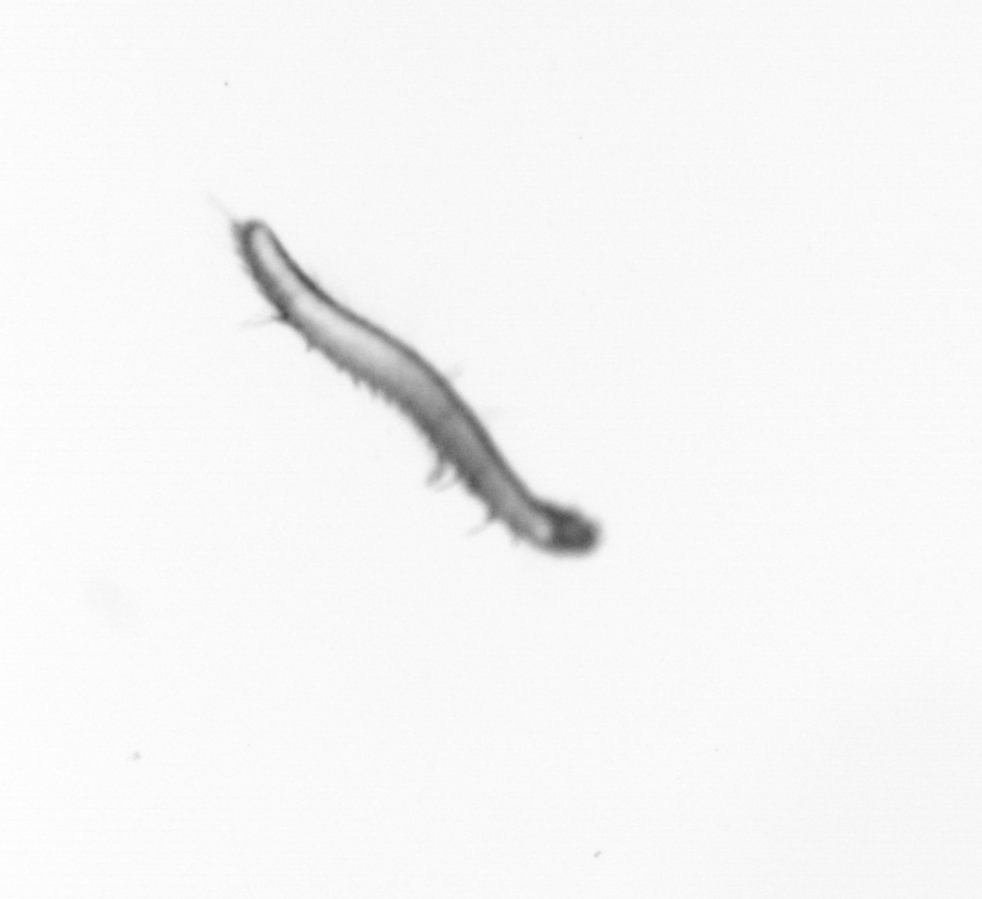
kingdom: Animalia
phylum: Annelida
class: Polychaeta
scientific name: Polychaeta
